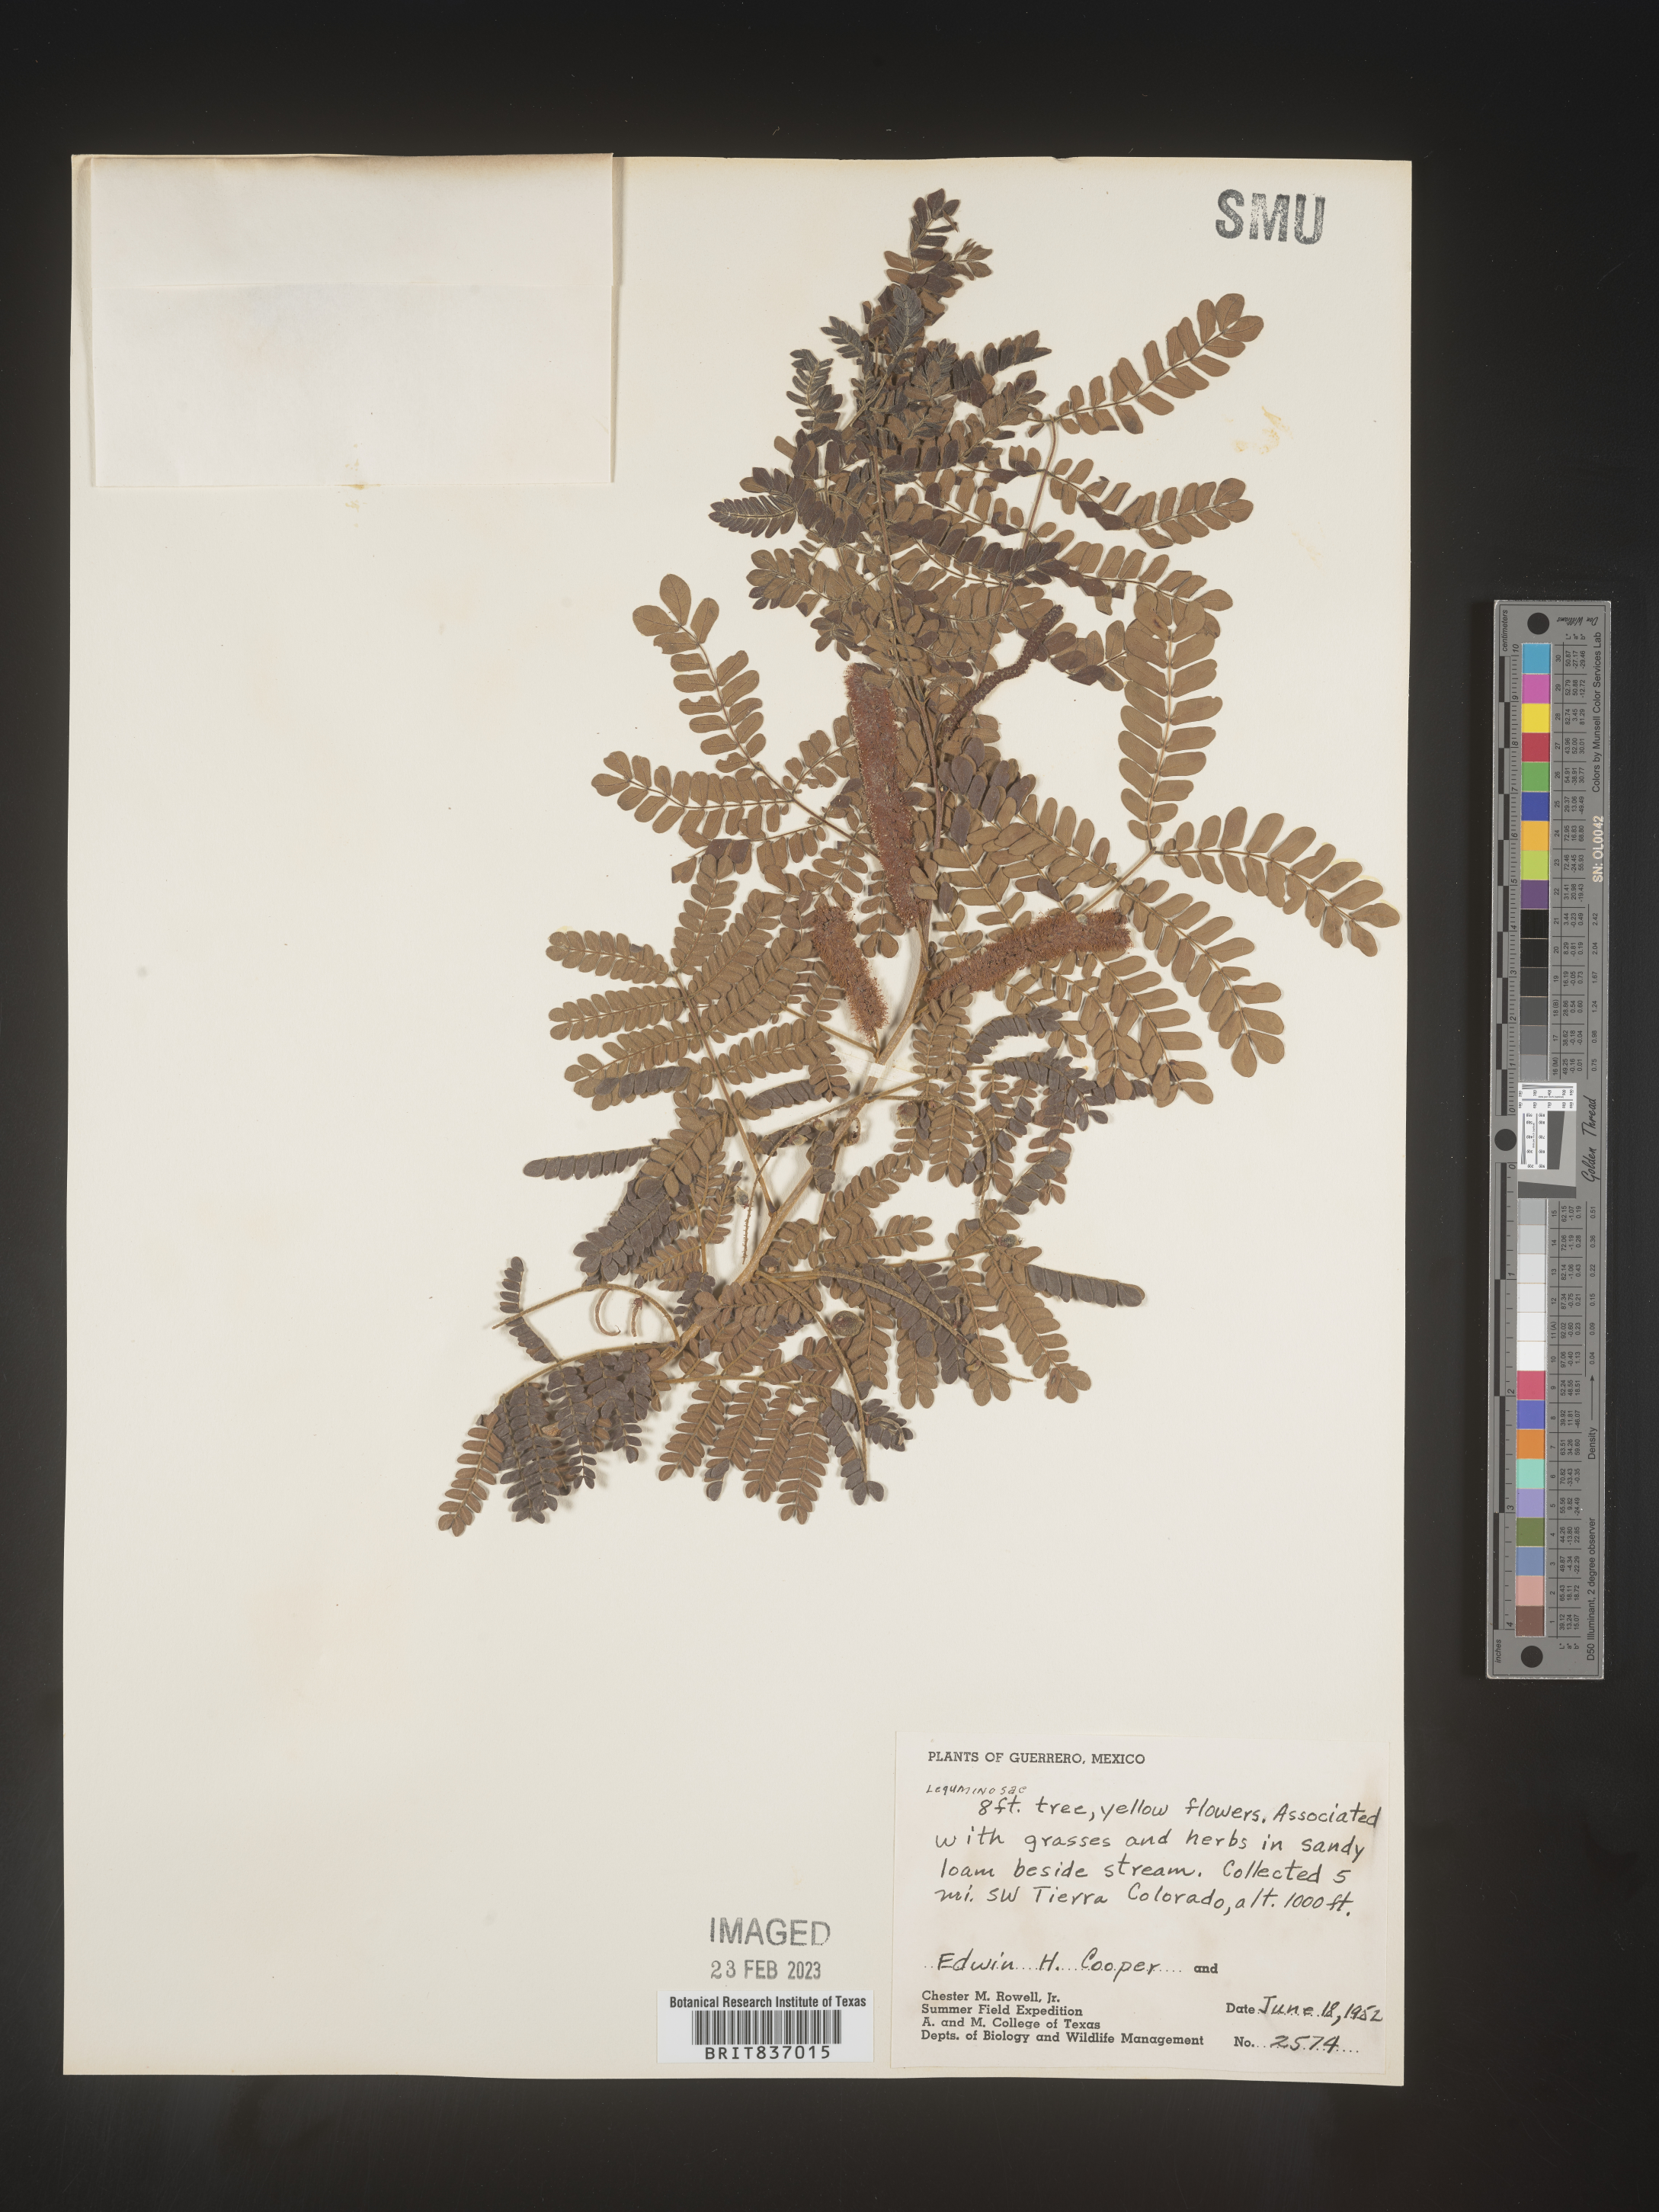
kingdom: Plantae
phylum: Tracheophyta
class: Magnoliopsida
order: Fabales
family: Fabaceae
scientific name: Fabaceae
